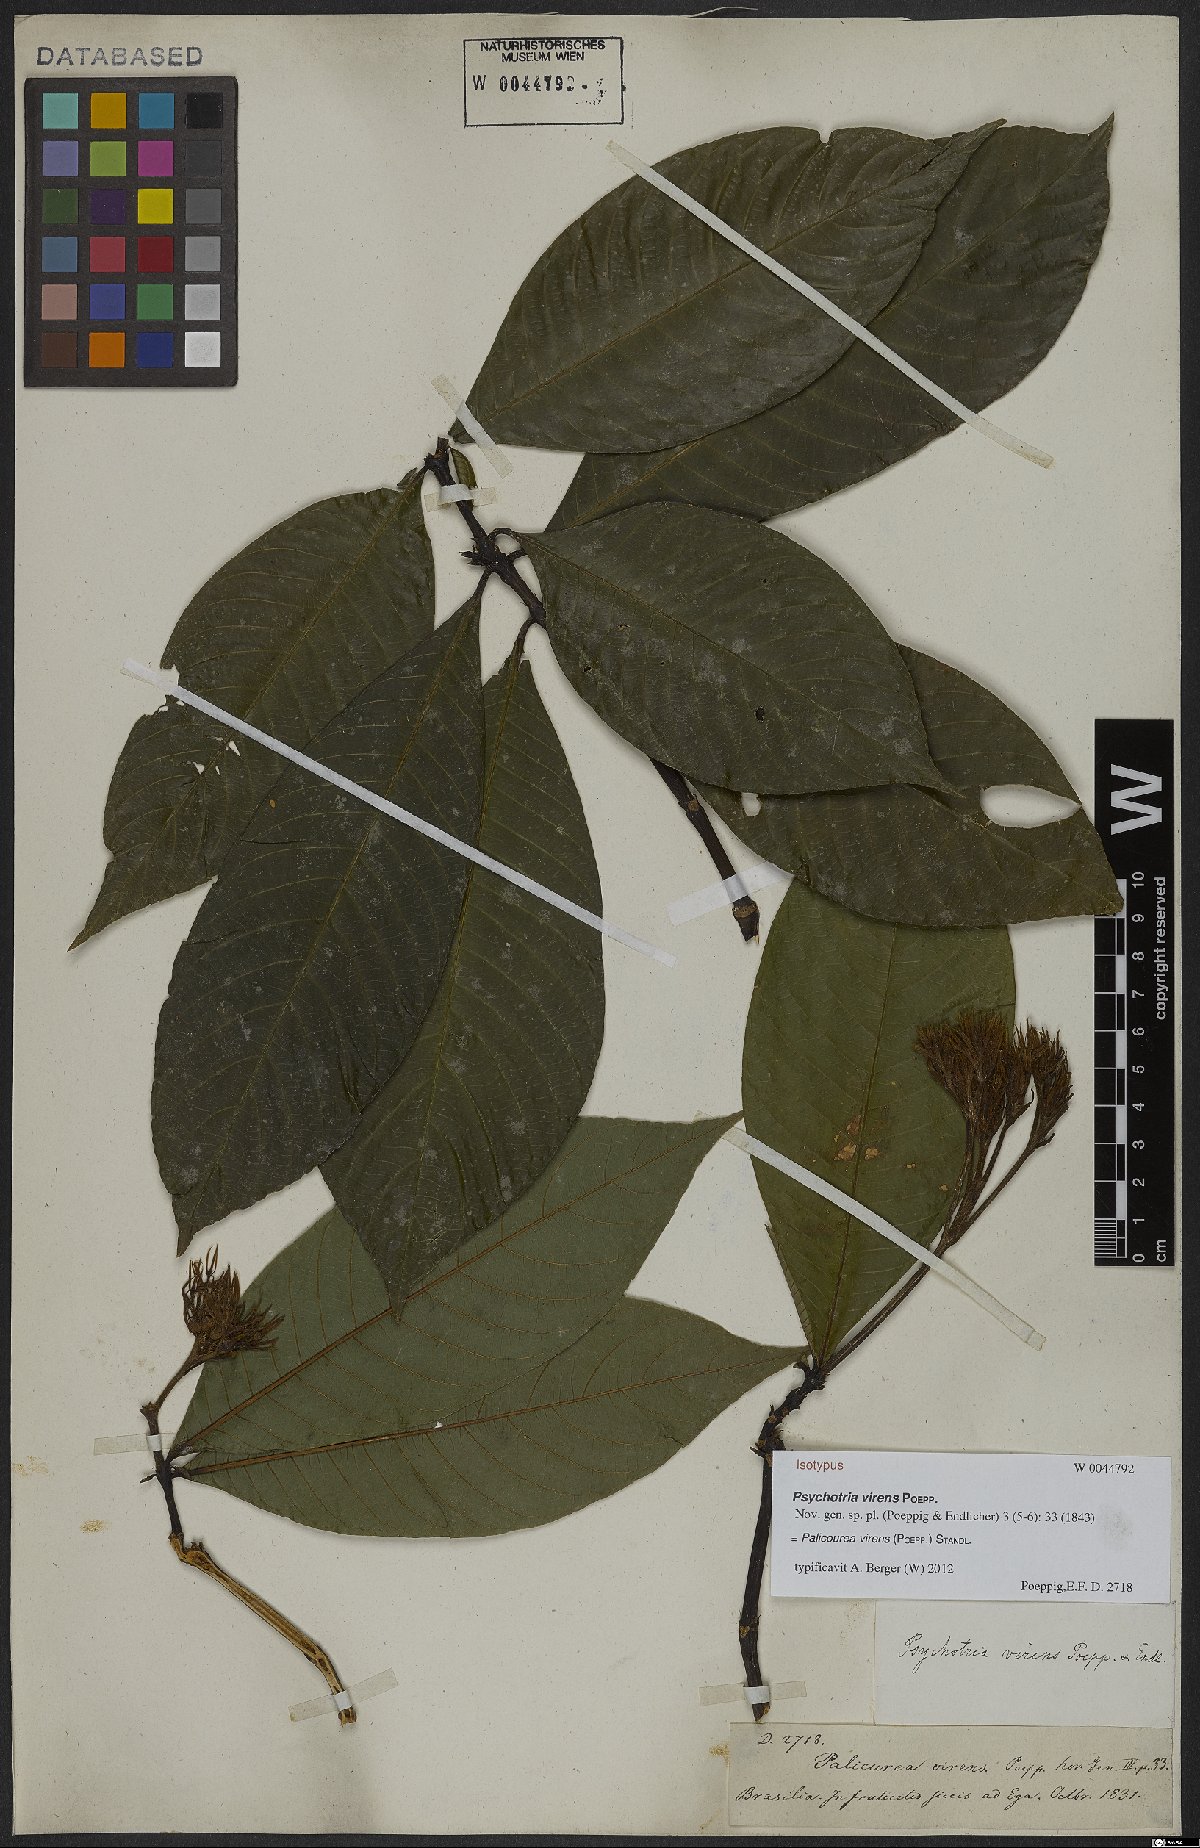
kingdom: Plantae
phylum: Tracheophyta
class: Magnoliopsida
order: Gentianales
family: Rubiaceae
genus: Palicourea
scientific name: Palicourea virens
